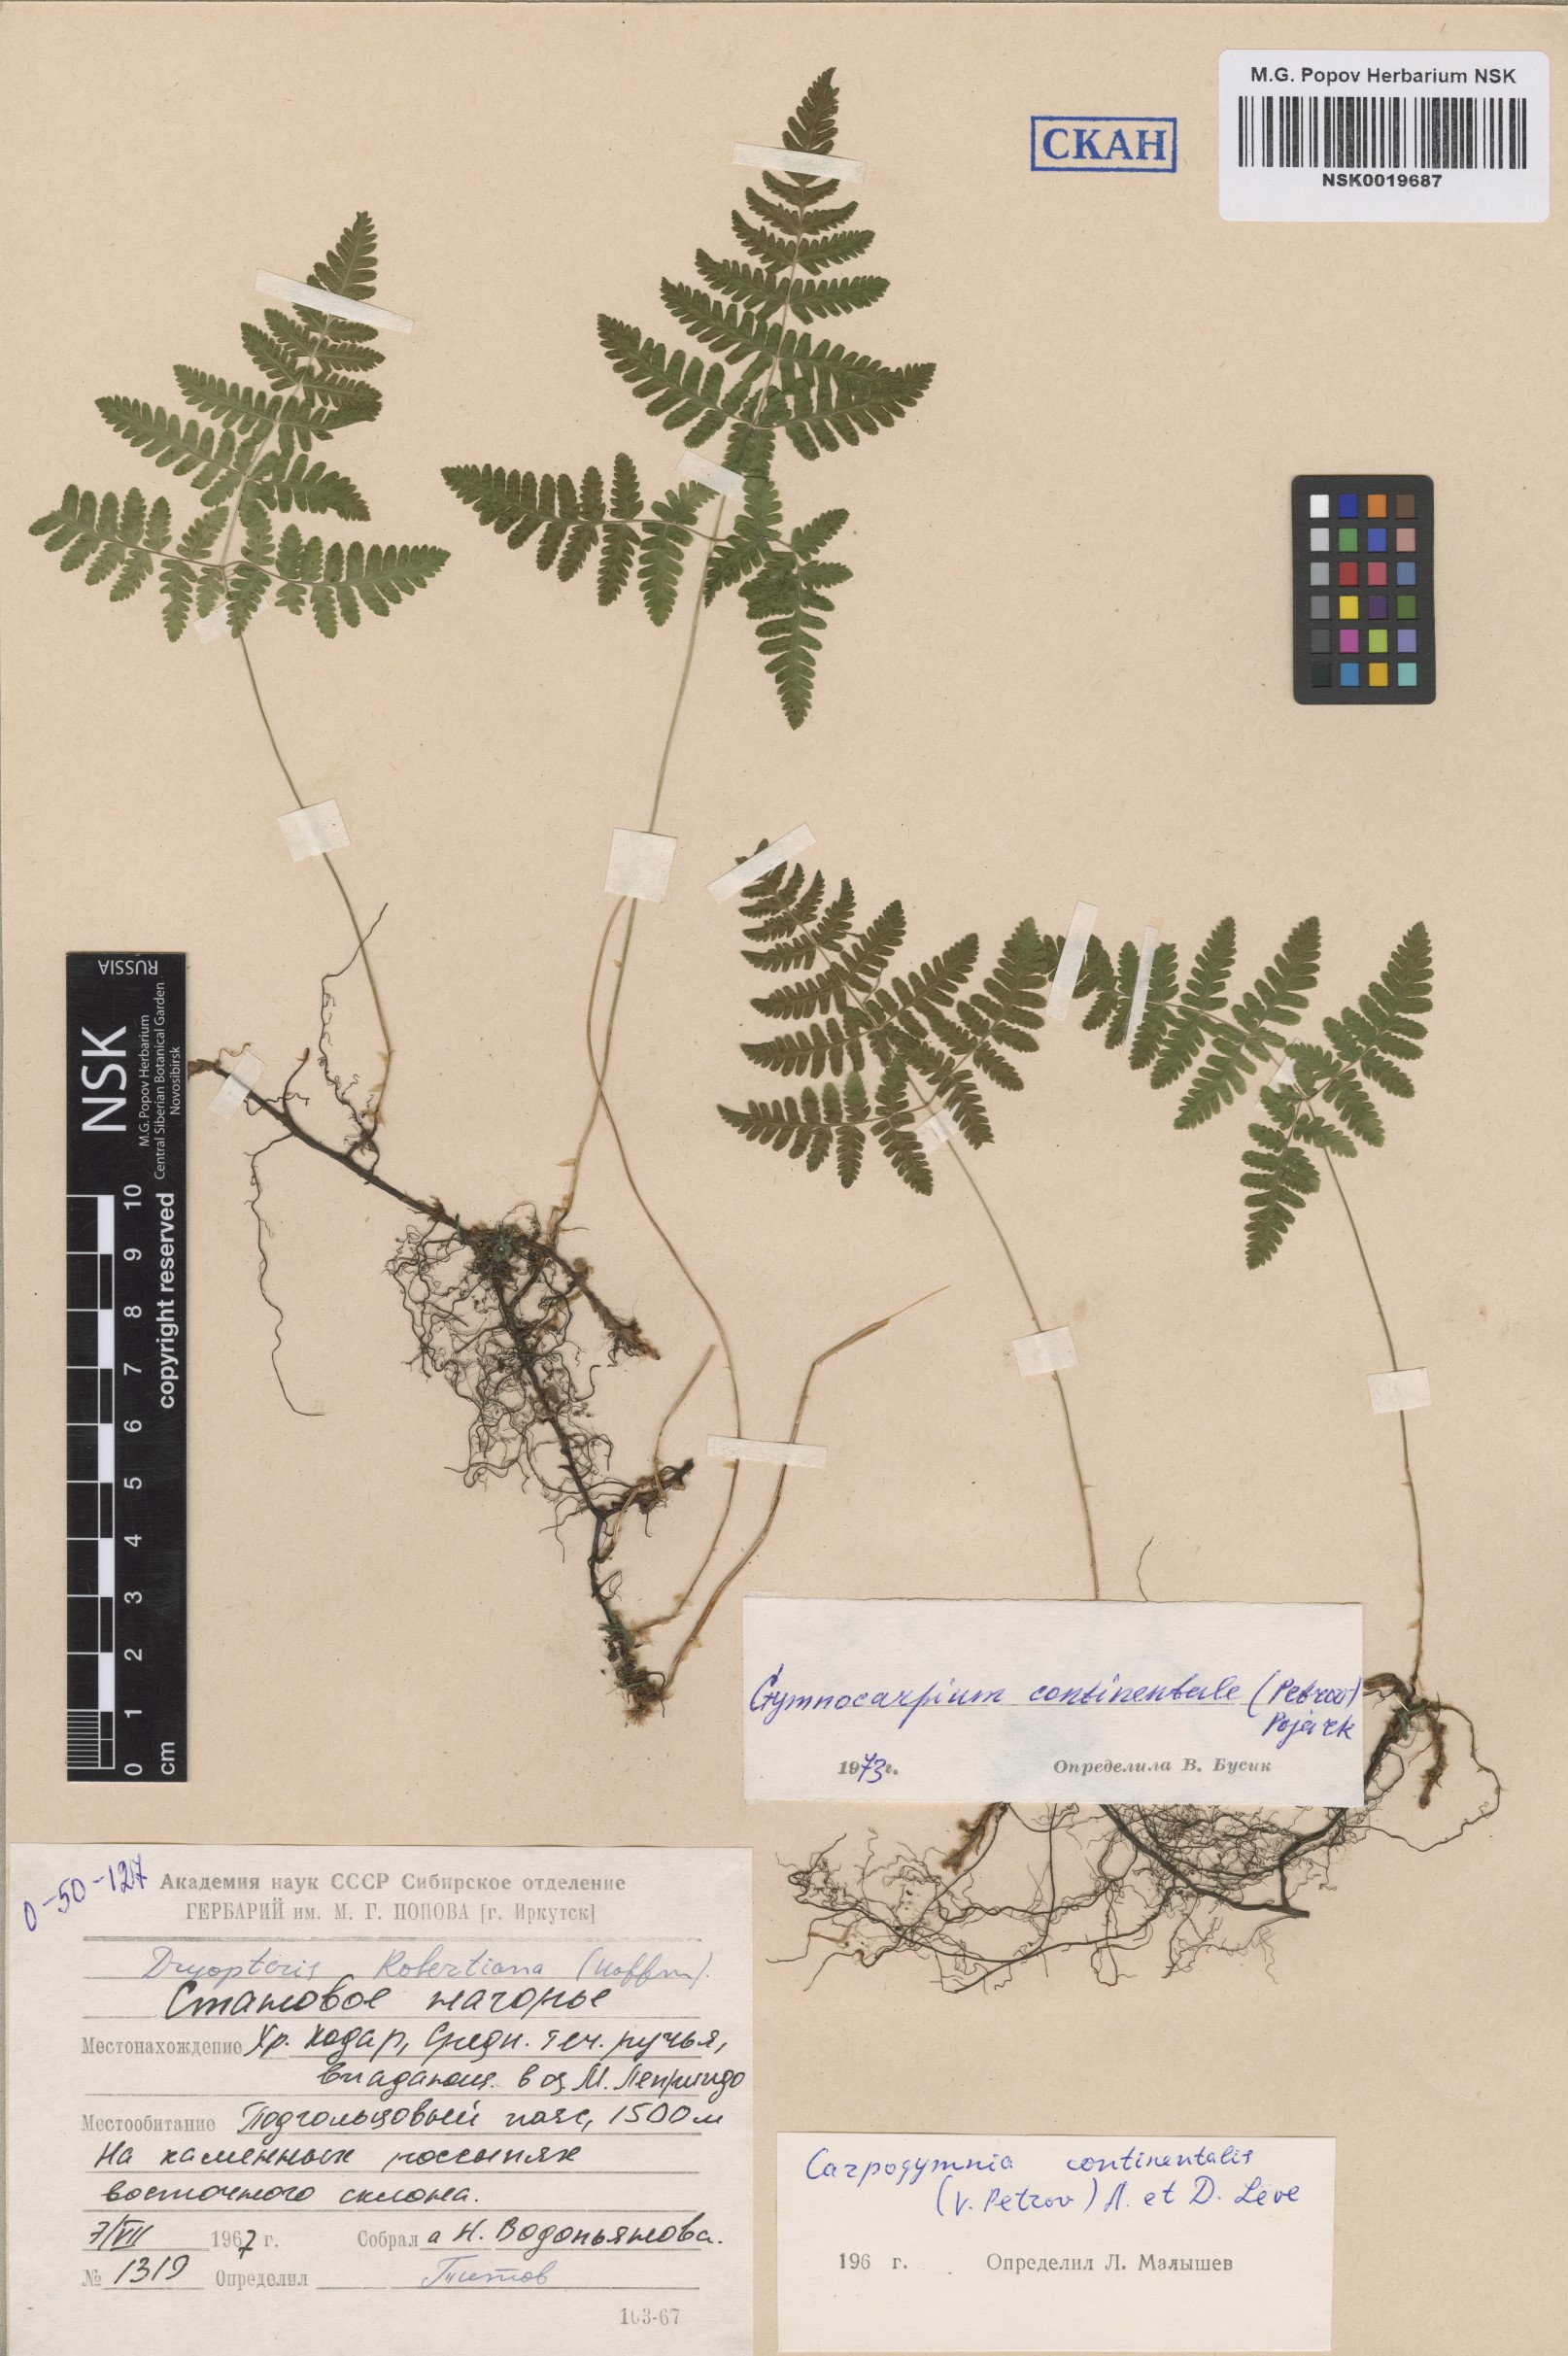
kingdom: Plantae
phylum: Tracheophyta
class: Polypodiopsida
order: Polypodiales
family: Cystopteridaceae
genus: Gymnocarpium
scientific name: Gymnocarpium continentale
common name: Asian oak fern
